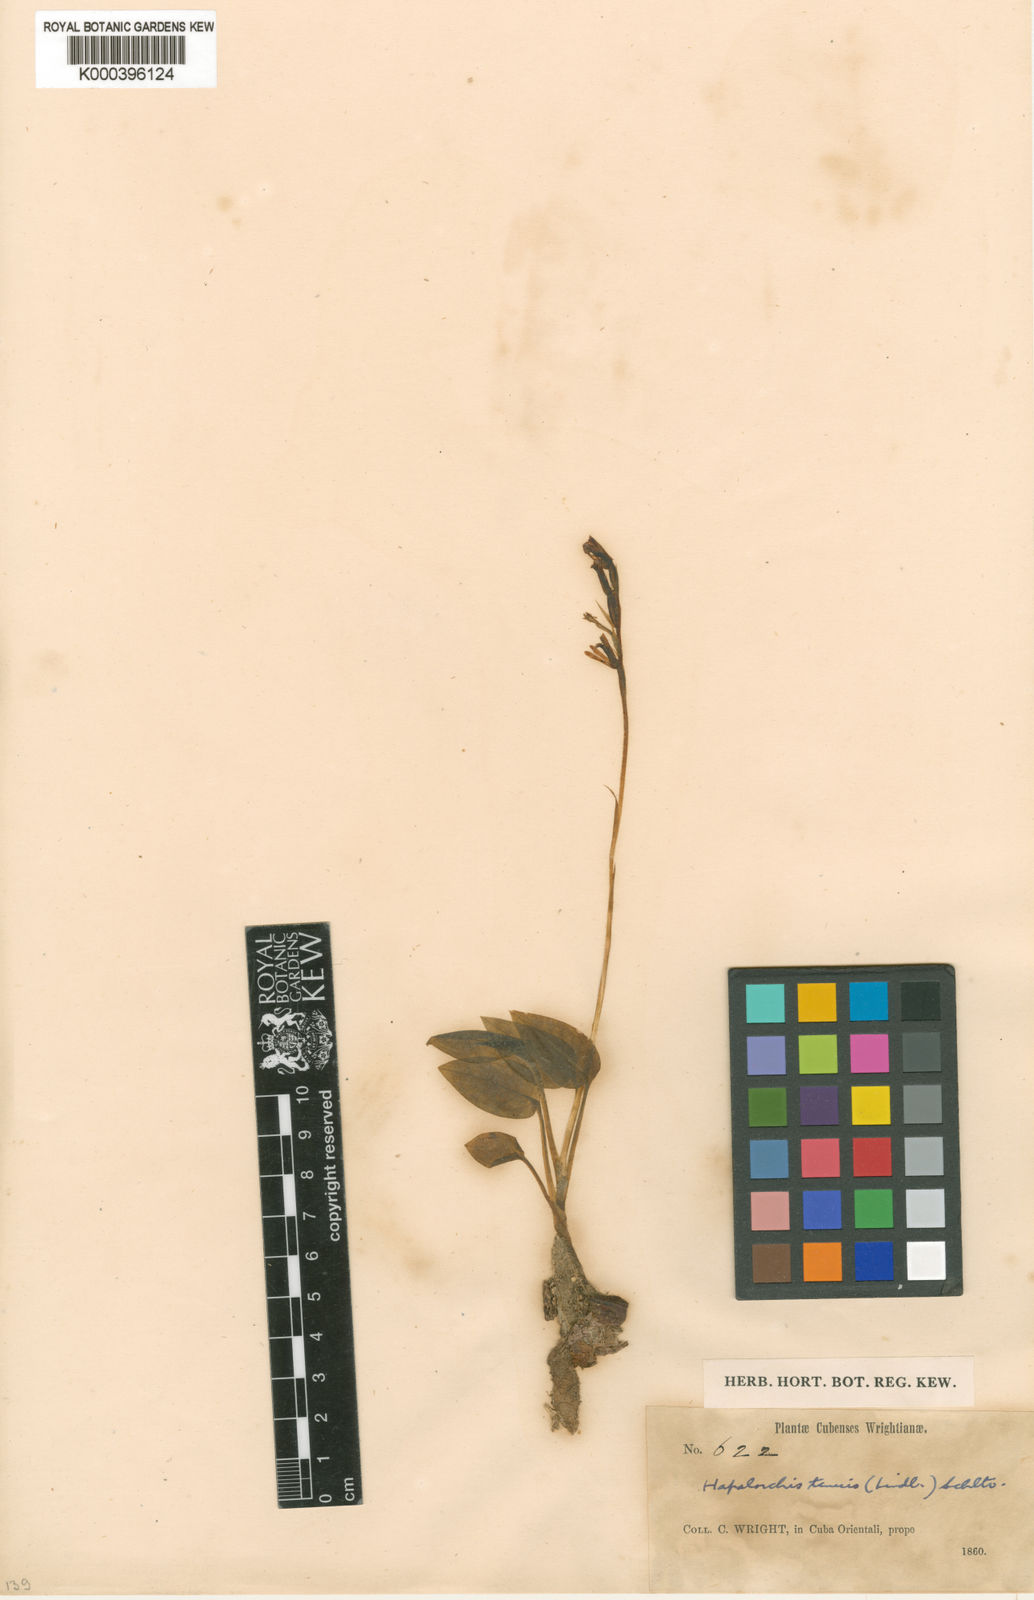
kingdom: Plantae
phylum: Tracheophyta
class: Liliopsida
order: Asparagales
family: Orchidaceae
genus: Hapalorchis
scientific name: Hapalorchis lineata
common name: Tropical ladies'-tresses
